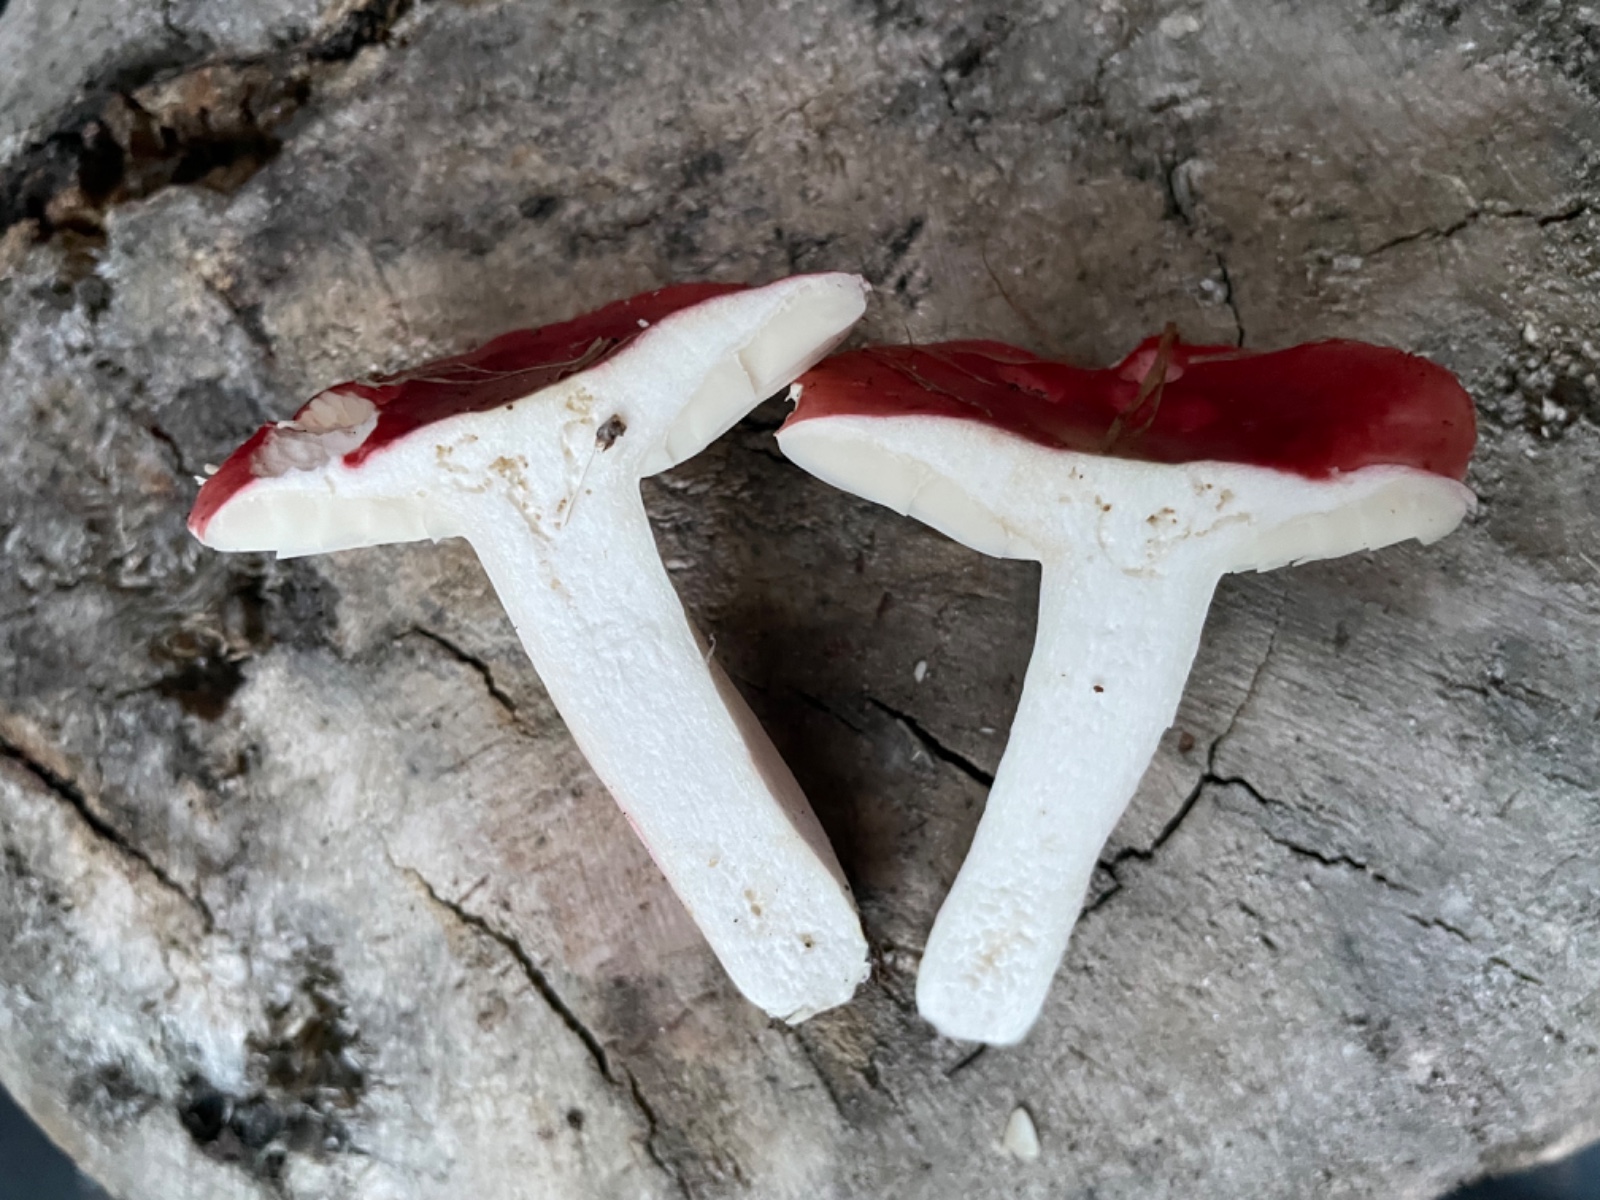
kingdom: Fungi
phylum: Basidiomycota
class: Agaricomycetes
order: Russulales
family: Russulaceae
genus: Russula
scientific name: Russula sanguinea
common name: blodrød skørhat
